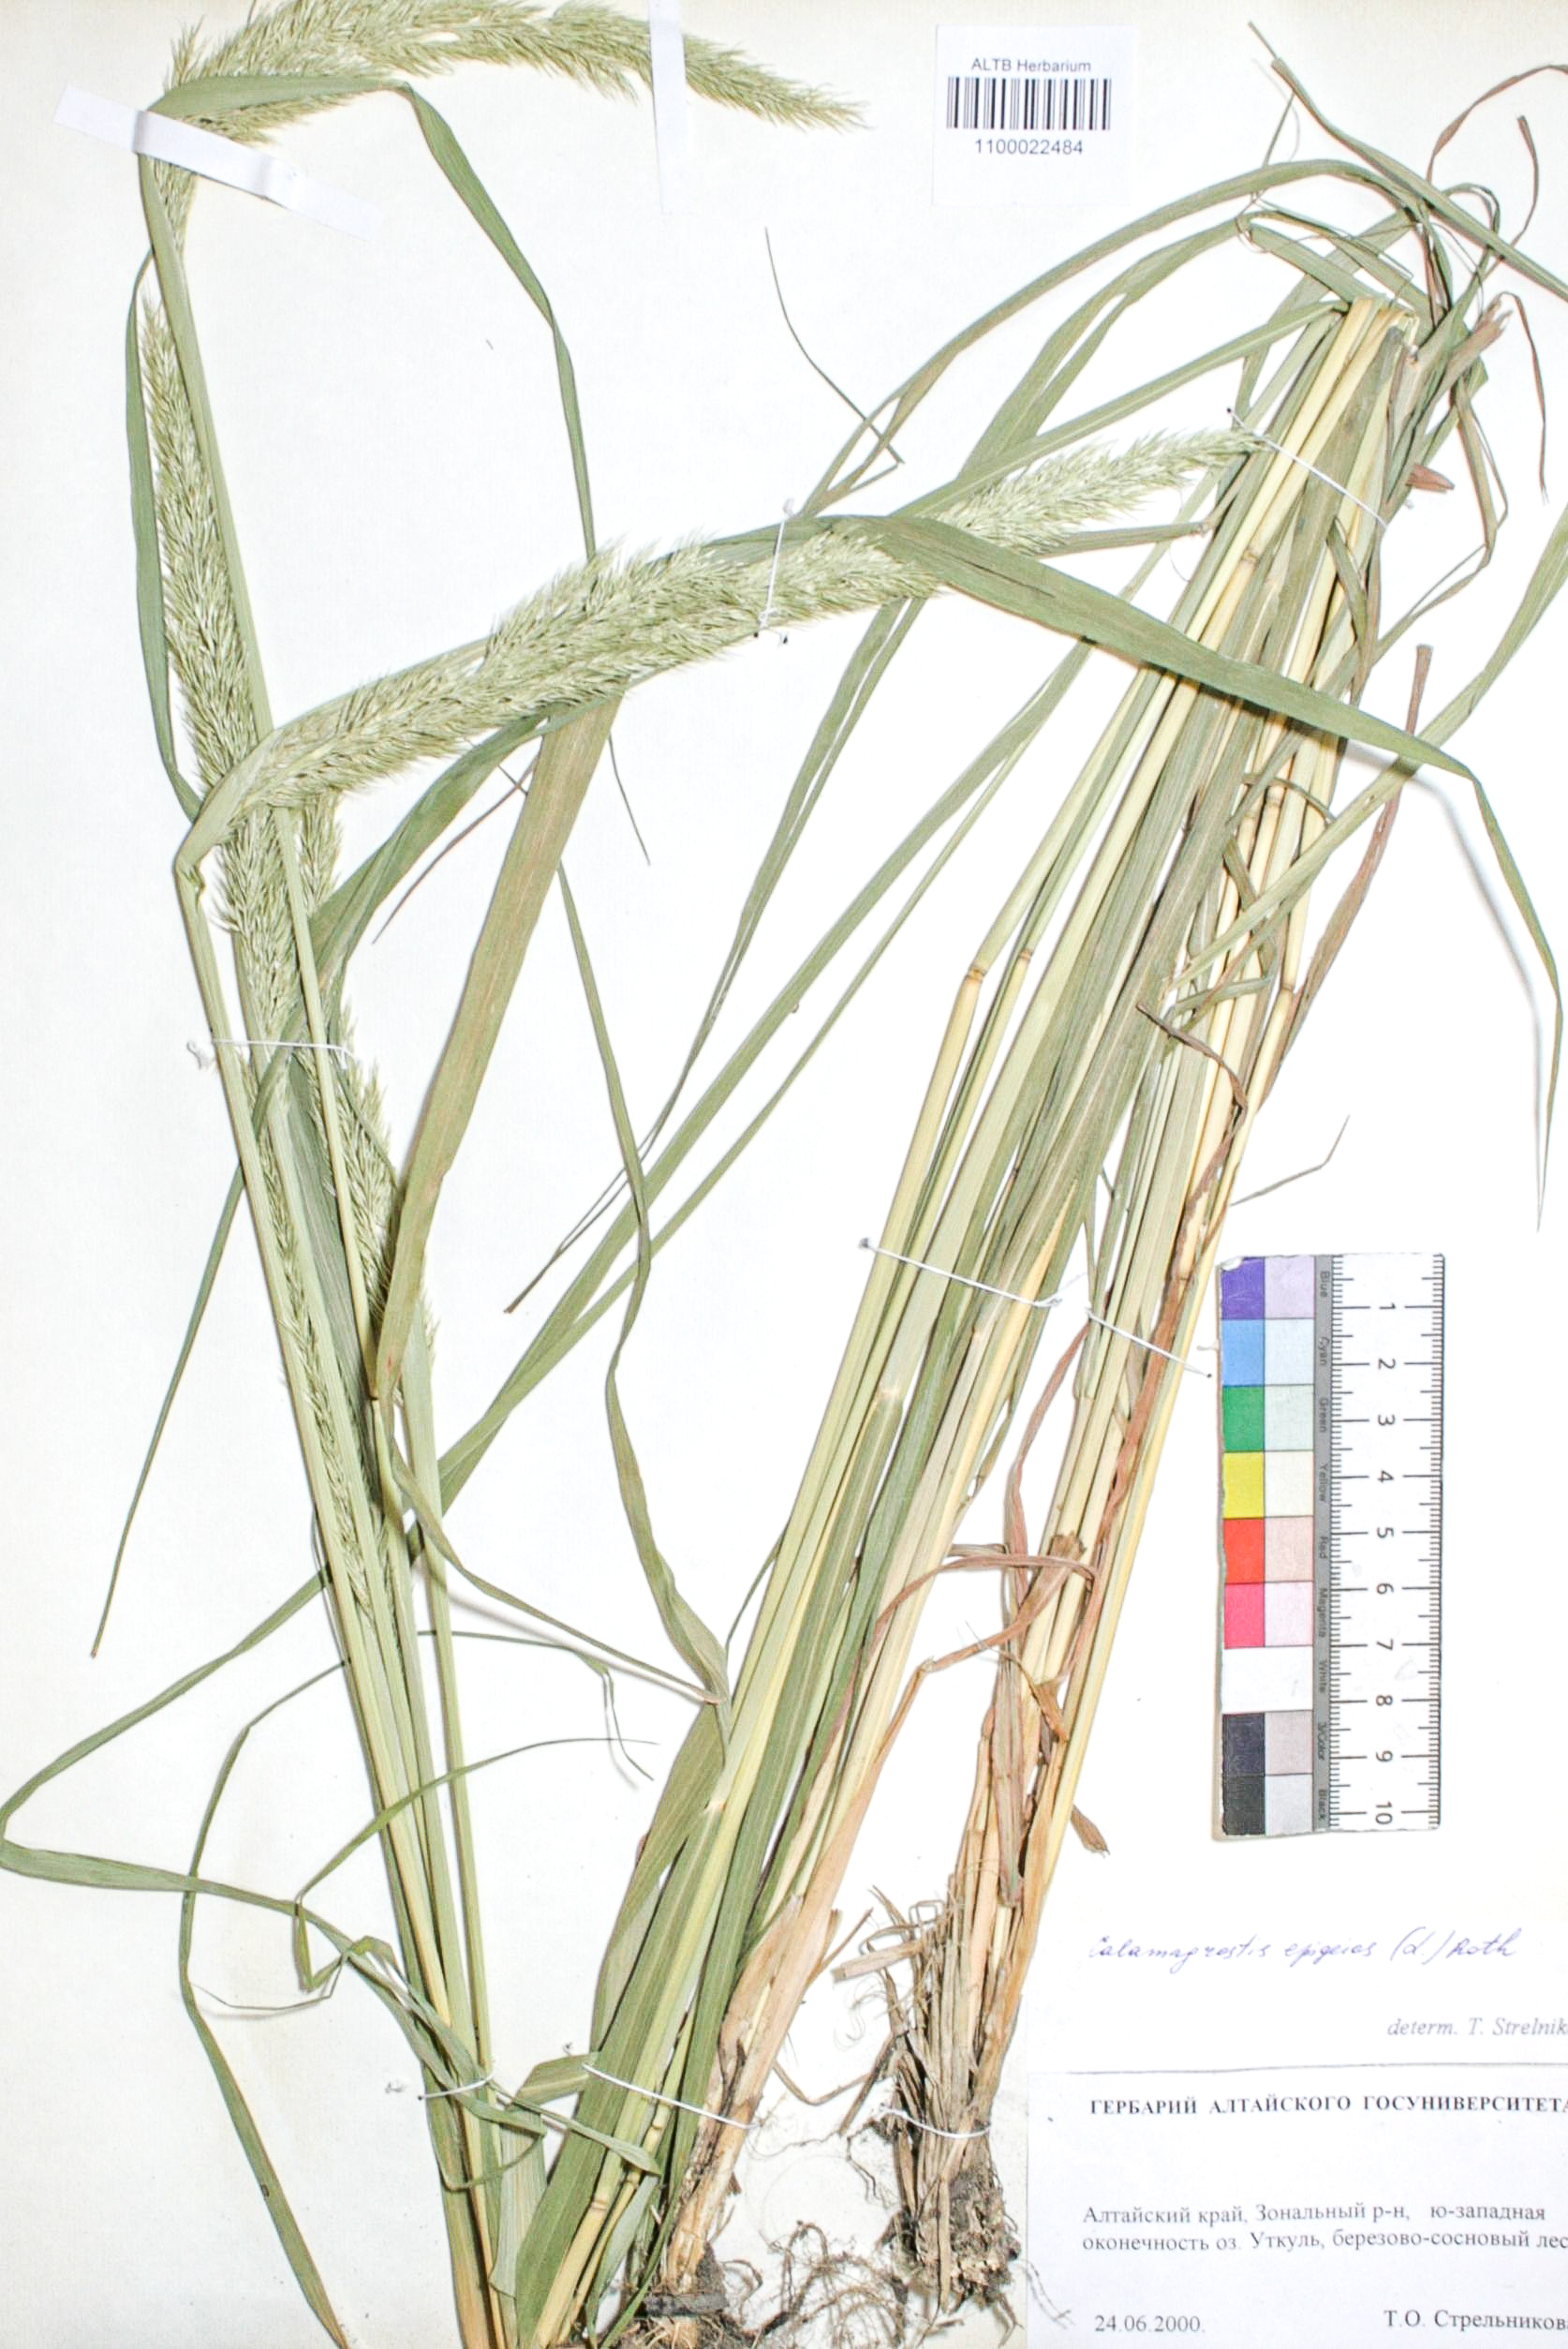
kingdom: Plantae
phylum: Tracheophyta
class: Liliopsida
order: Poales
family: Poaceae
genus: Calamagrostis
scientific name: Calamagrostis epigejos
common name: Wood small-reed
